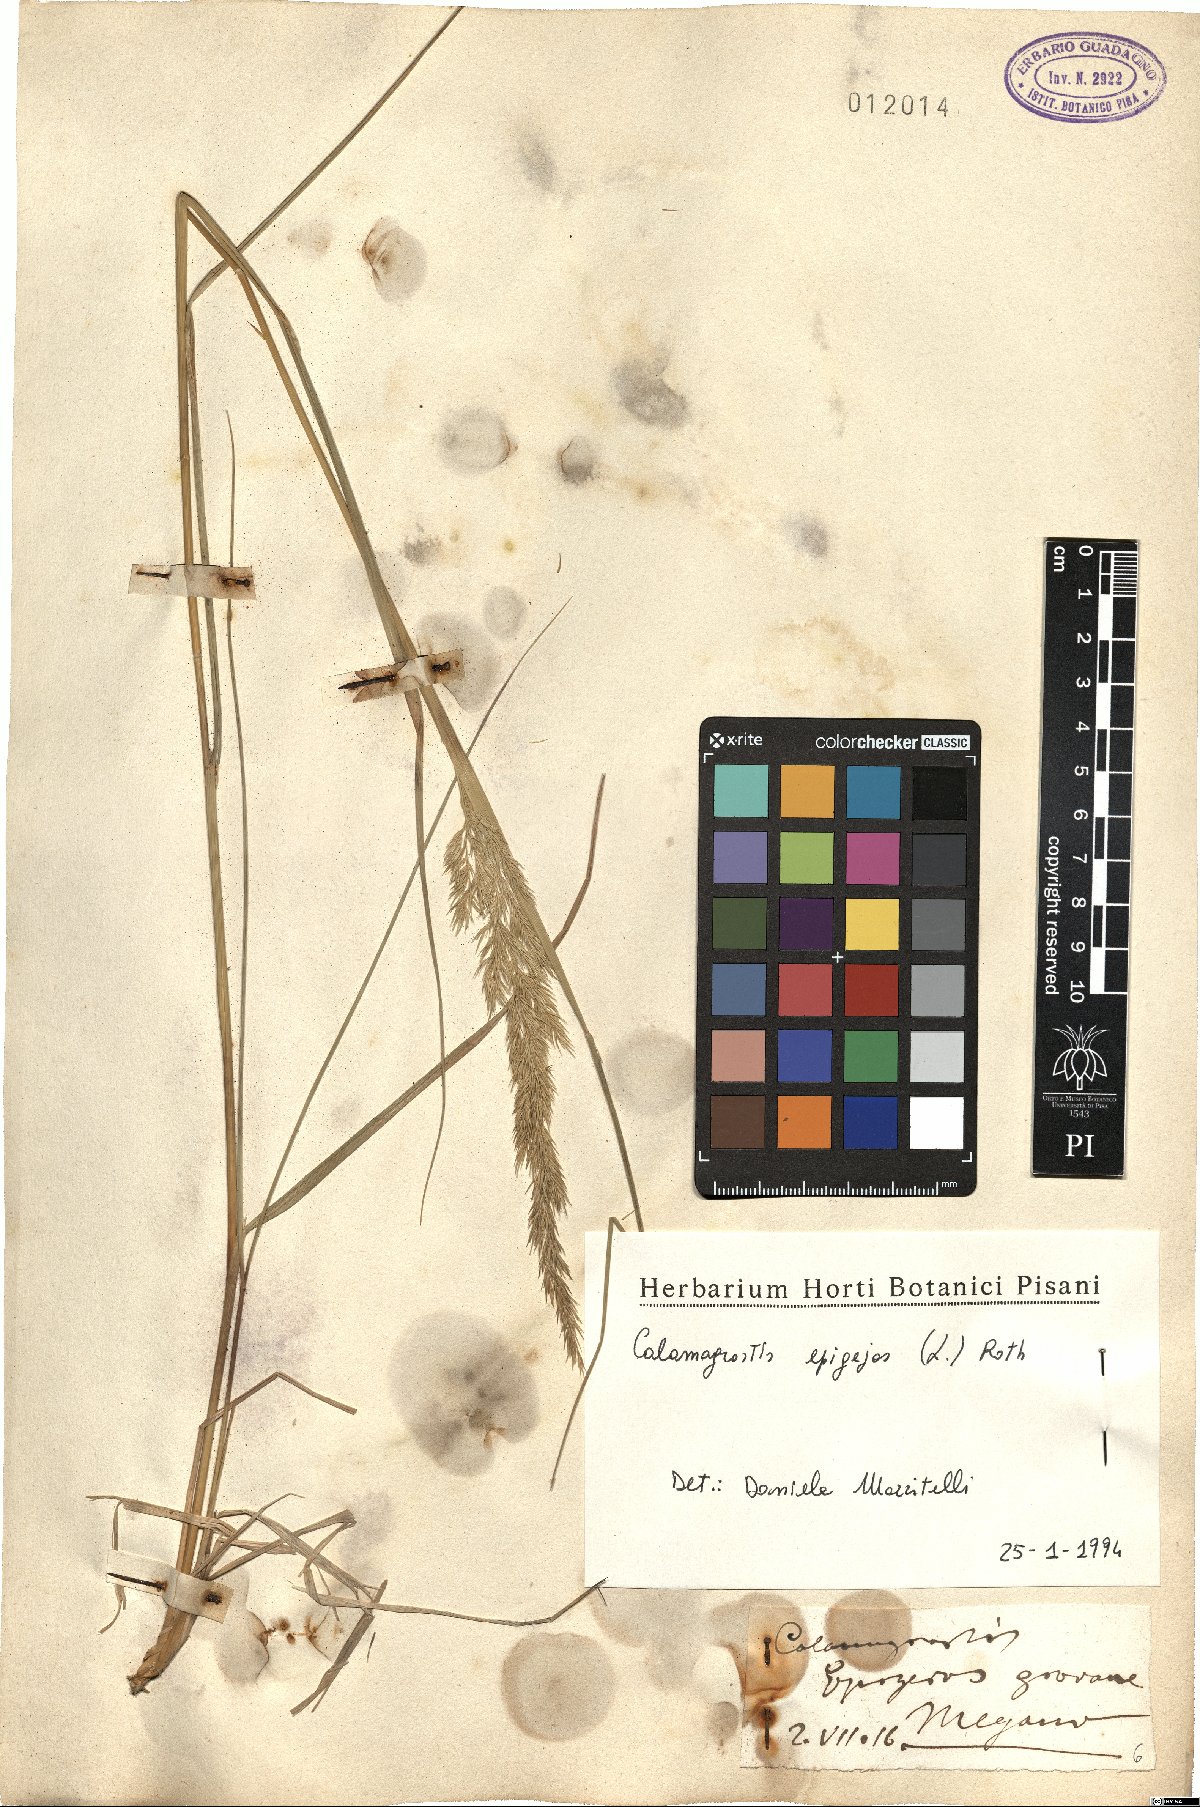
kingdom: Plantae
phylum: Tracheophyta
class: Liliopsida
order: Poales
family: Poaceae
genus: Calamagrostis
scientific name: Calamagrostis epigejos
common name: Wood small-reed
